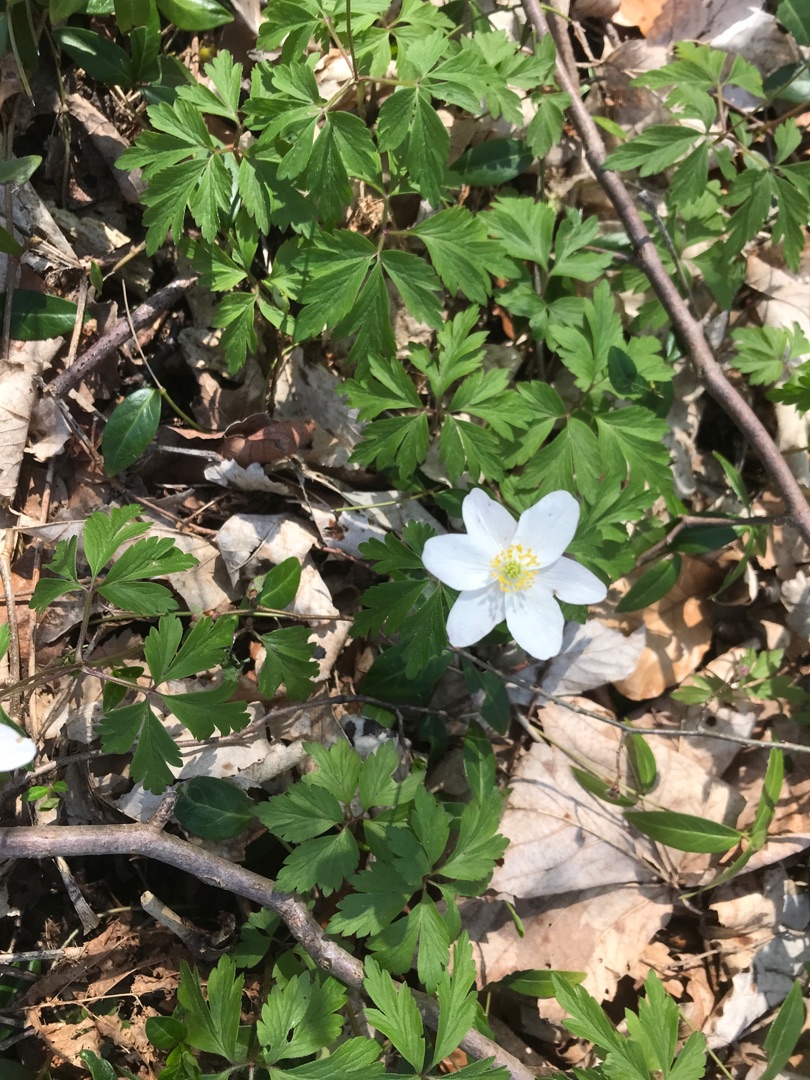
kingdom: Plantae
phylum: Tracheophyta
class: Magnoliopsida
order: Ranunculales
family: Ranunculaceae
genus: Anemone
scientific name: Anemone nemorosa
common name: Hvid anemone
